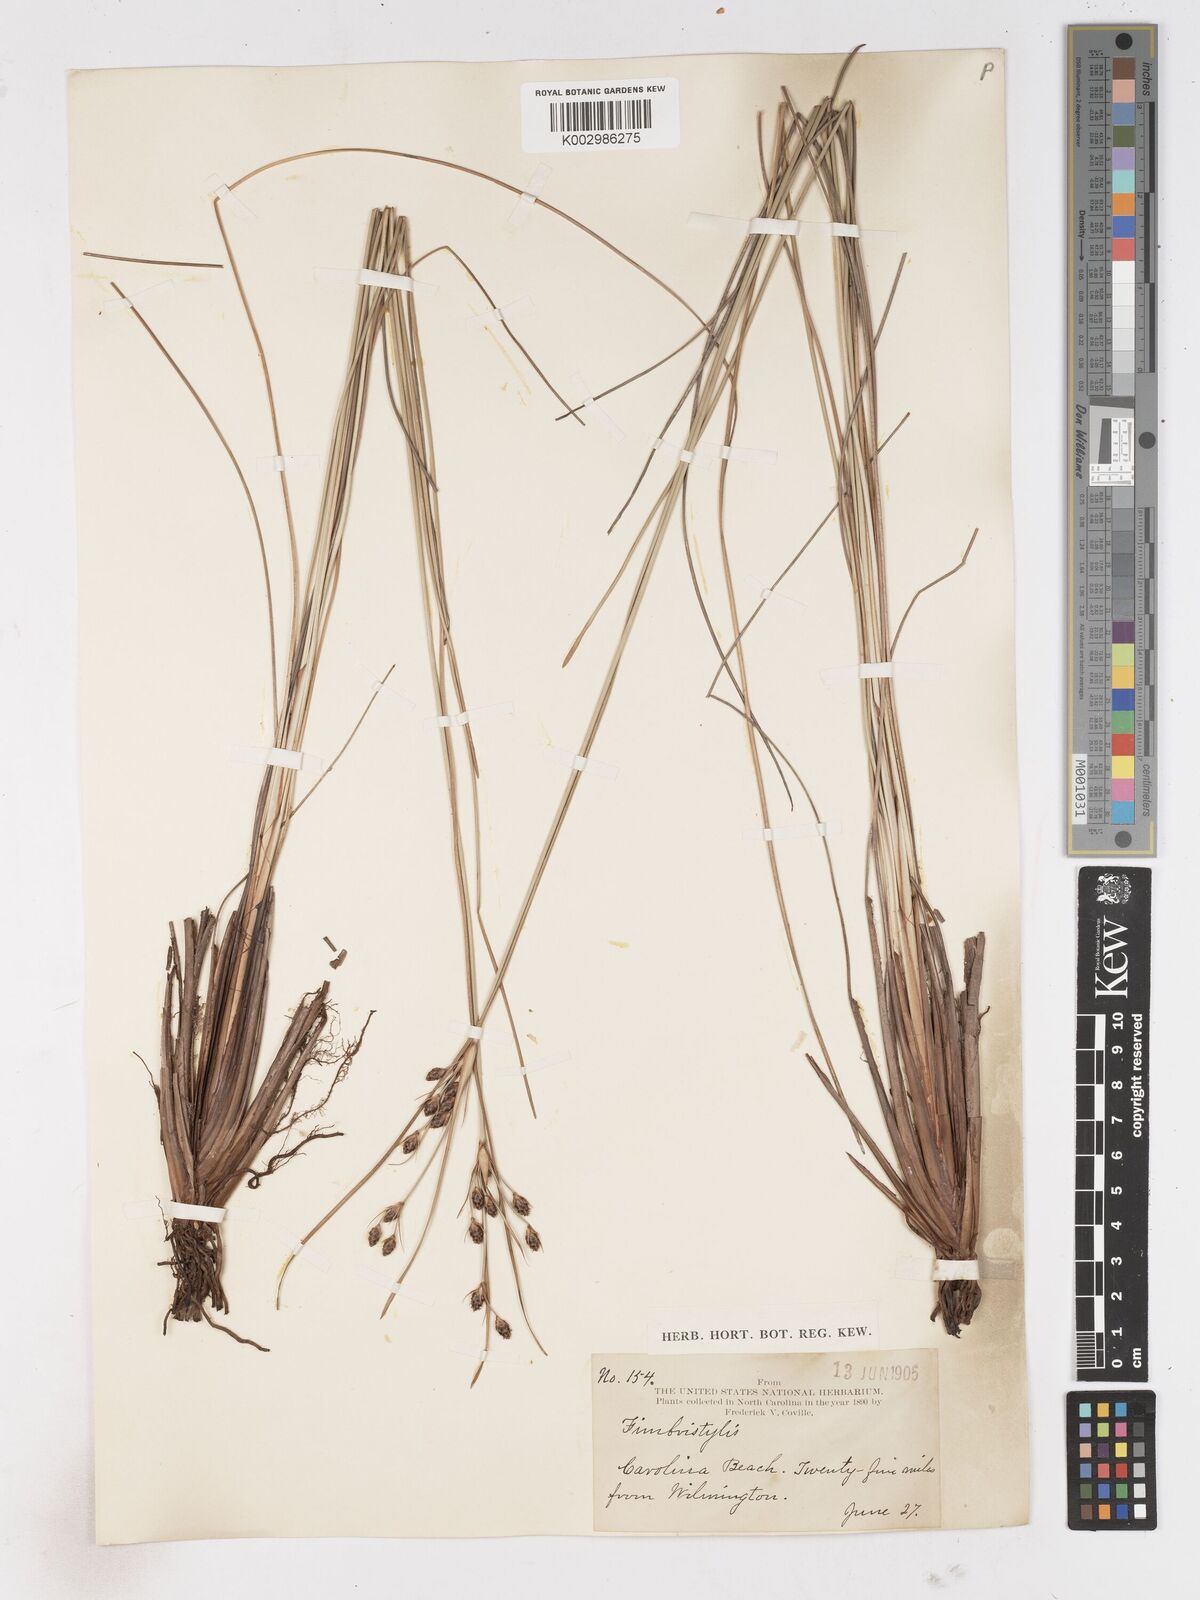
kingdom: Plantae
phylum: Tracheophyta
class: Liliopsida
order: Poales
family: Cyperaceae
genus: Fimbristylis
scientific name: Fimbristylis
